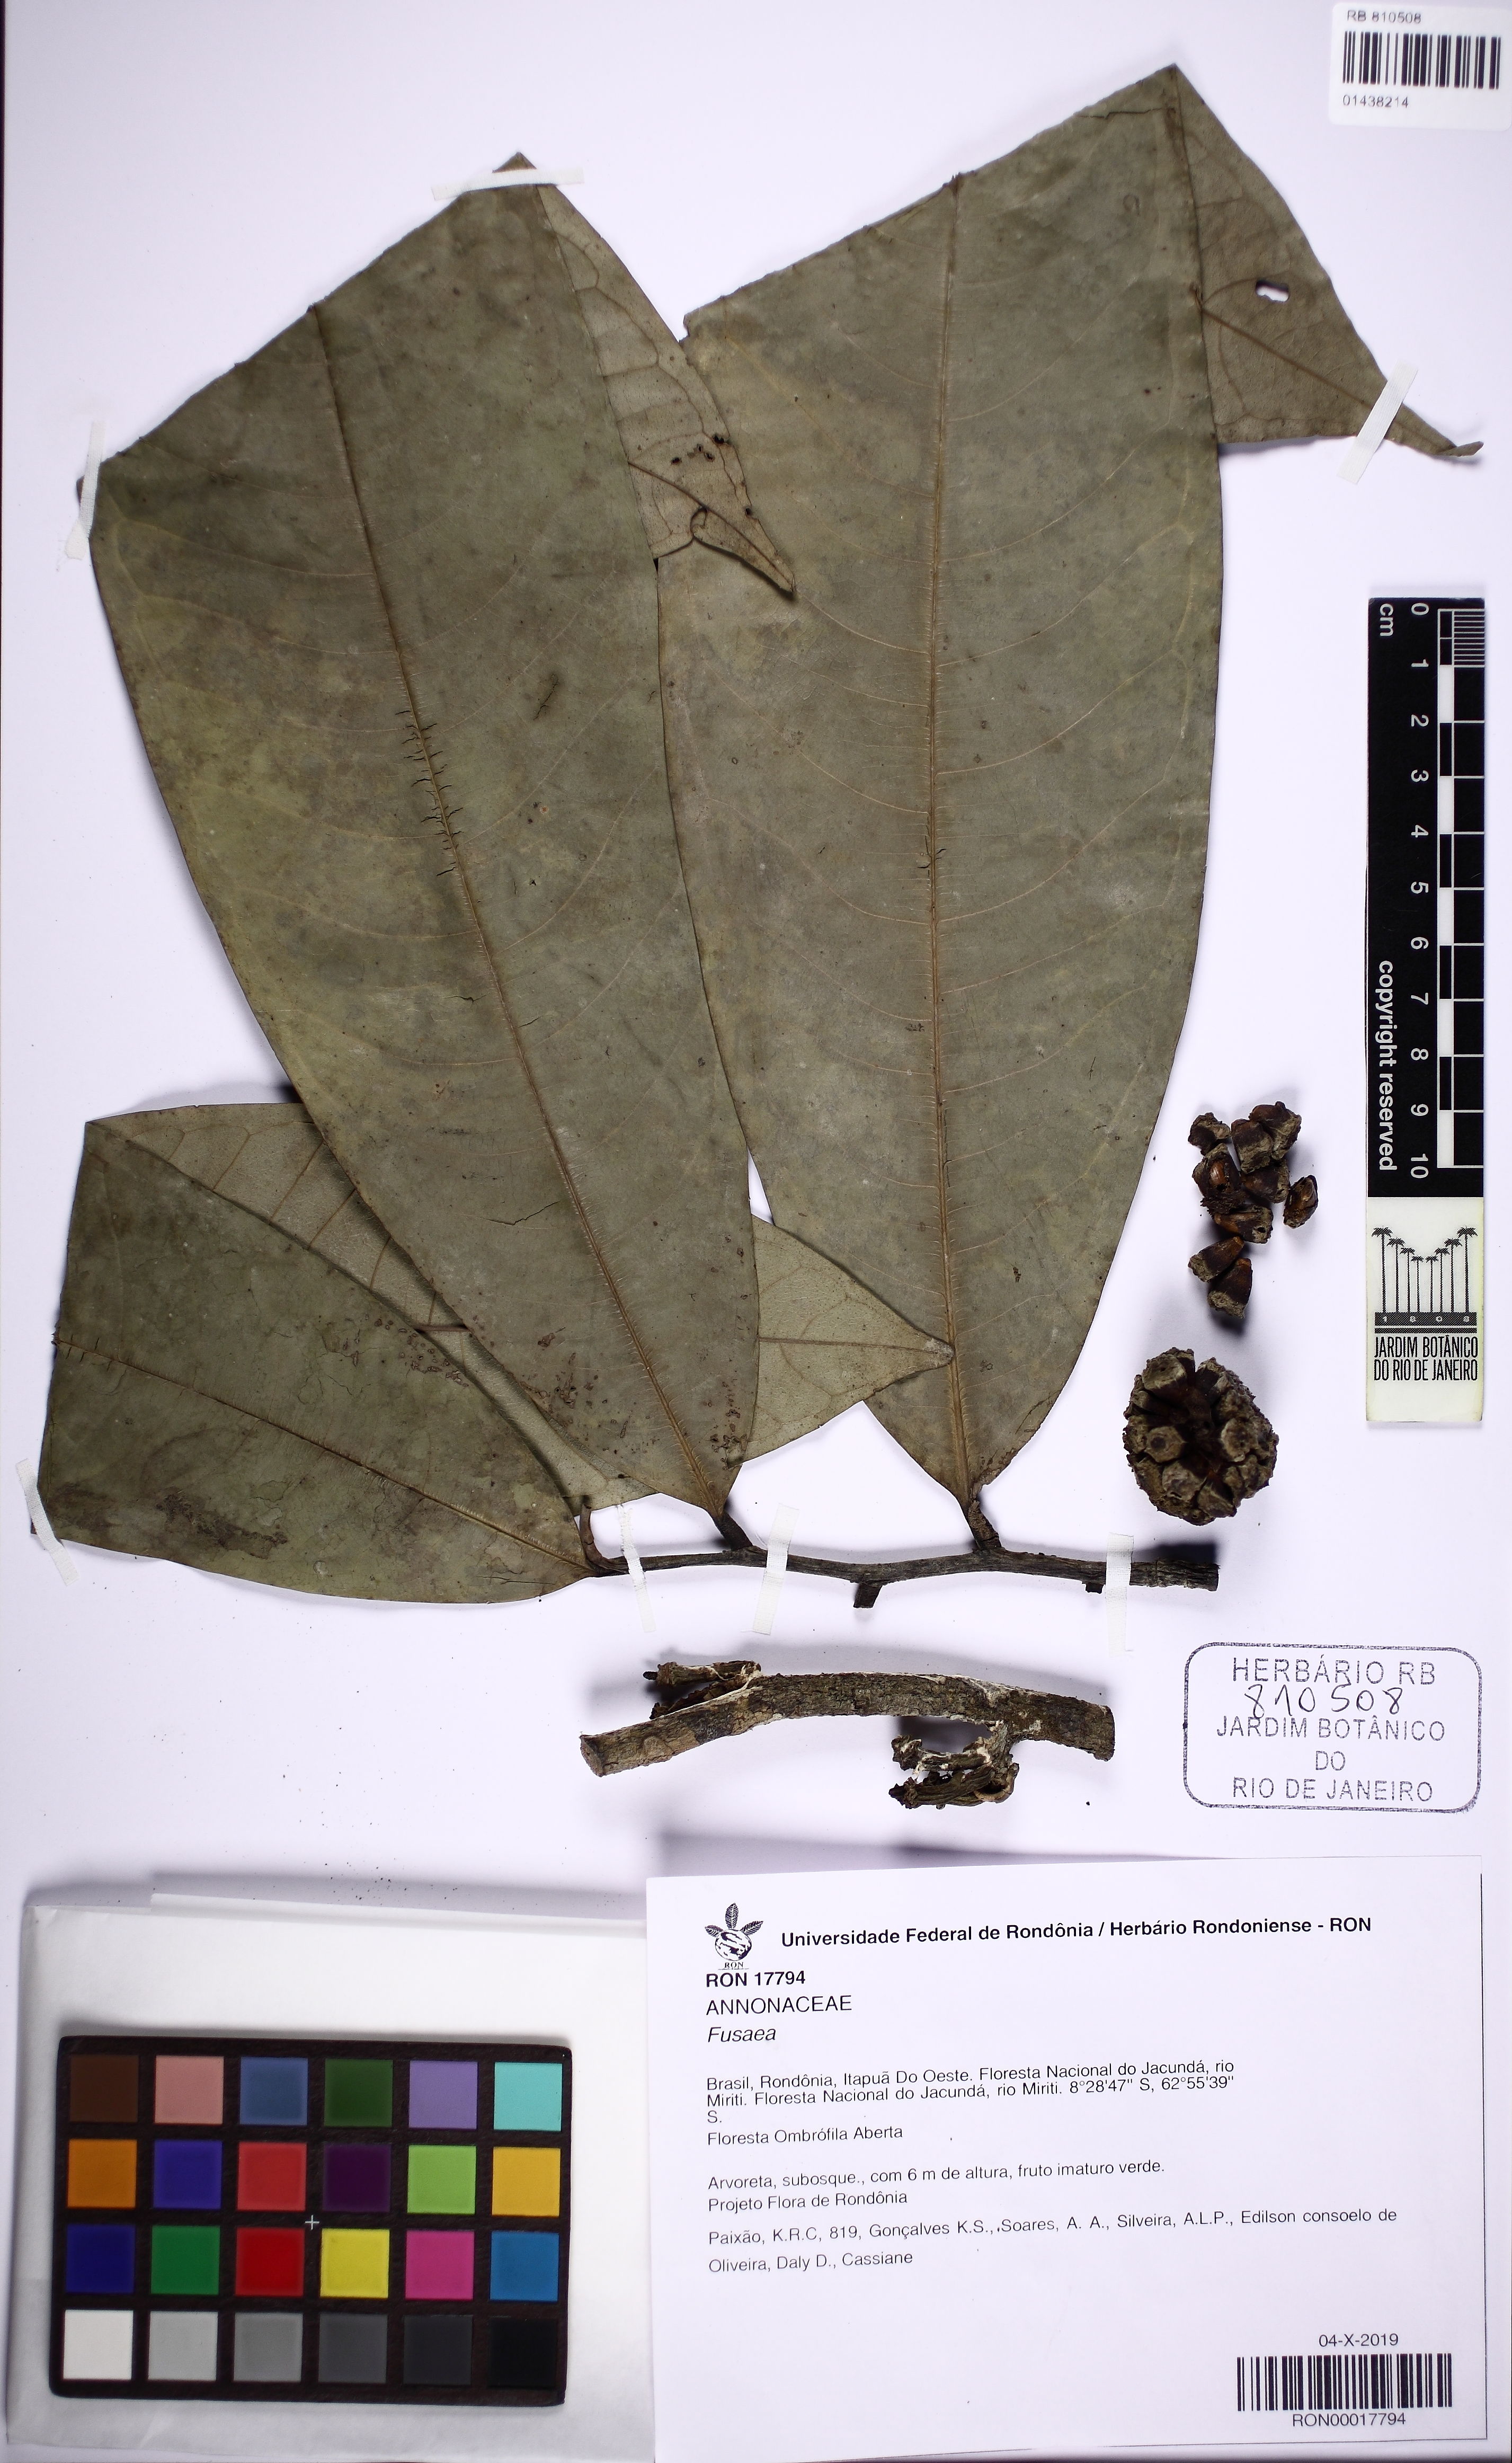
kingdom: Plantae
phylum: Tracheophyta
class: Magnoliopsida
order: Magnoliales
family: Annonaceae
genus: Fusaea
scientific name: Fusaea
